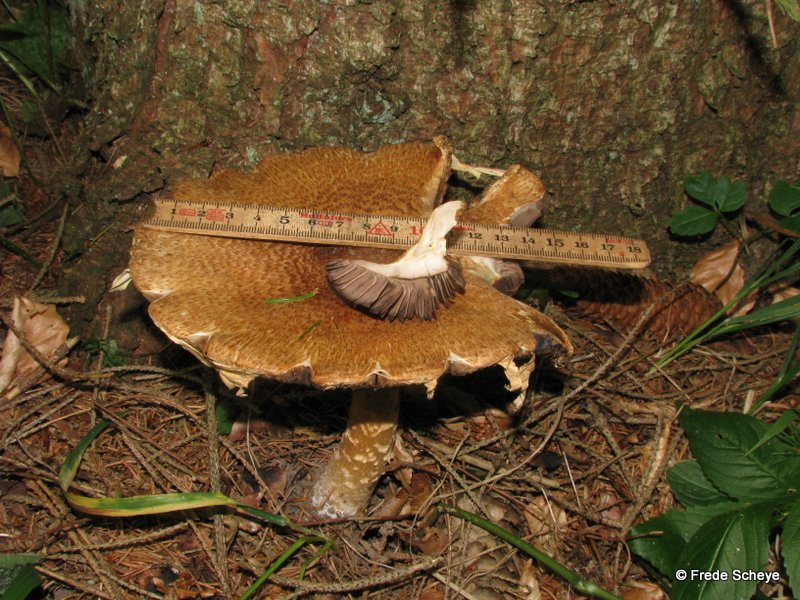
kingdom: Fungi
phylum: Basidiomycota
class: Agaricomycetes
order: Agaricales
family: Agaricaceae
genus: Agaricus
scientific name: Agaricus augustus
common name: prægtig champignon
